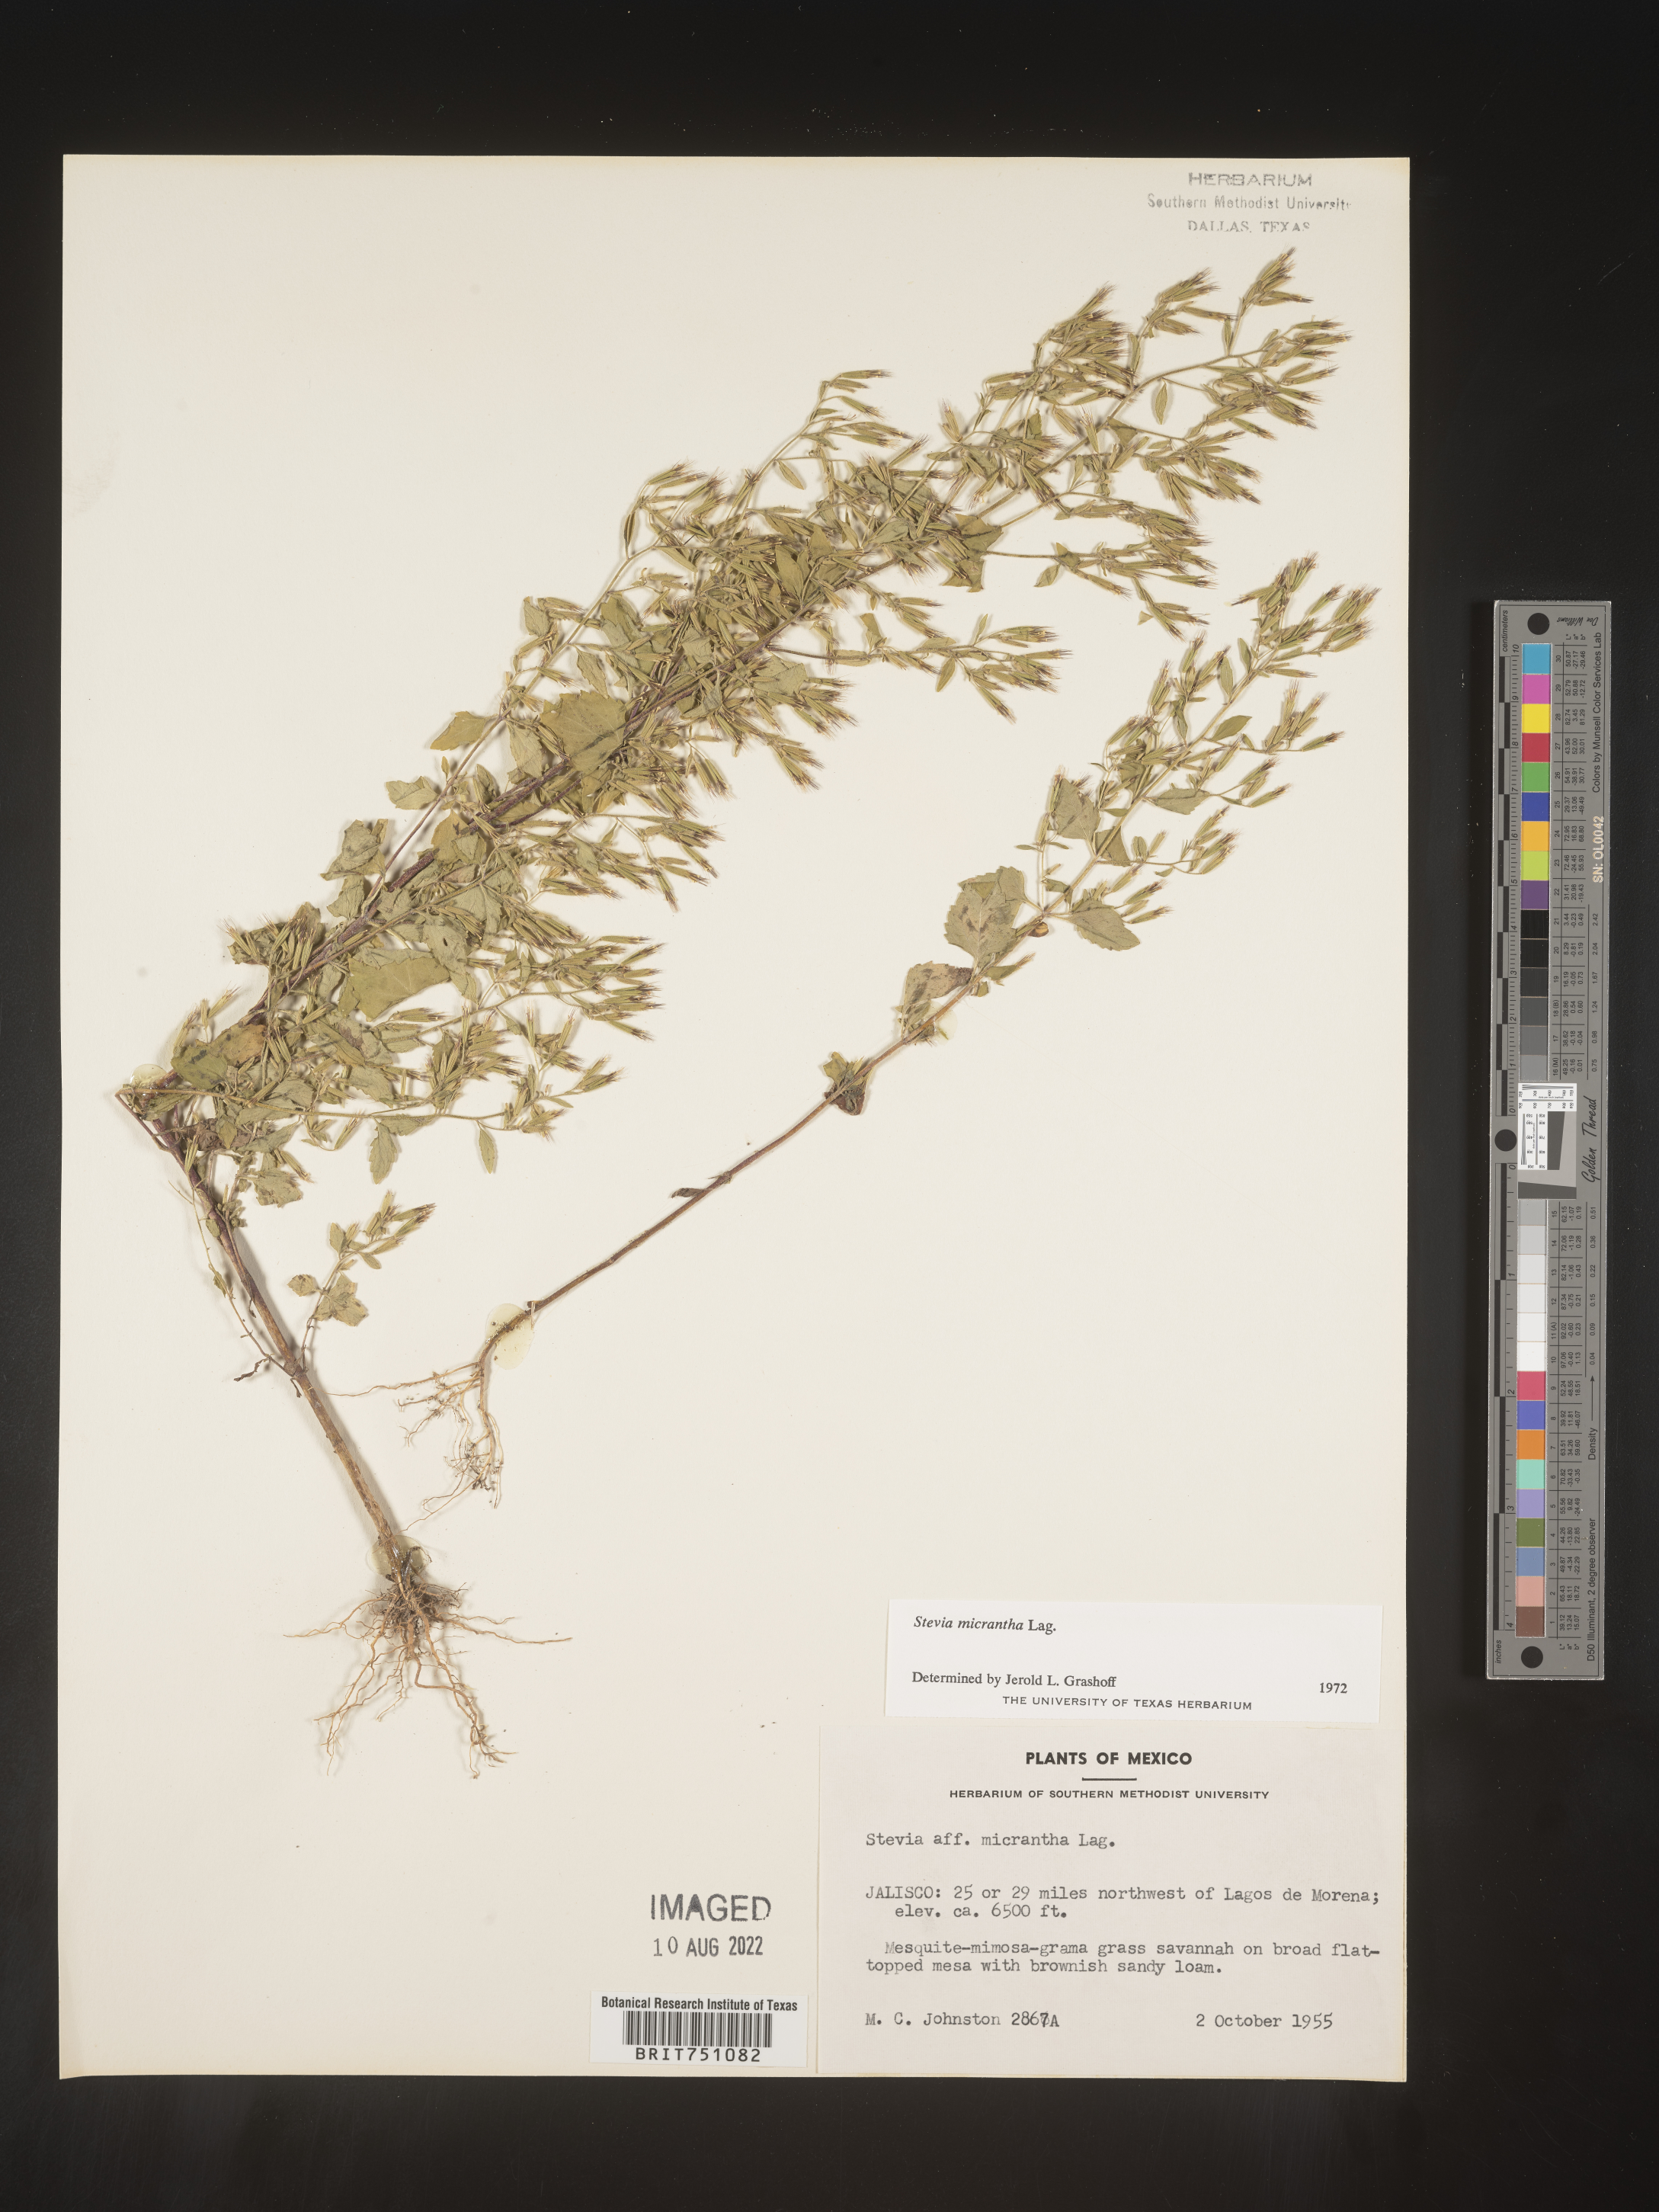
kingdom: Plantae
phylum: Tracheophyta
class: Magnoliopsida
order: Asterales
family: Asteraceae
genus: Stevia
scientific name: Stevia
